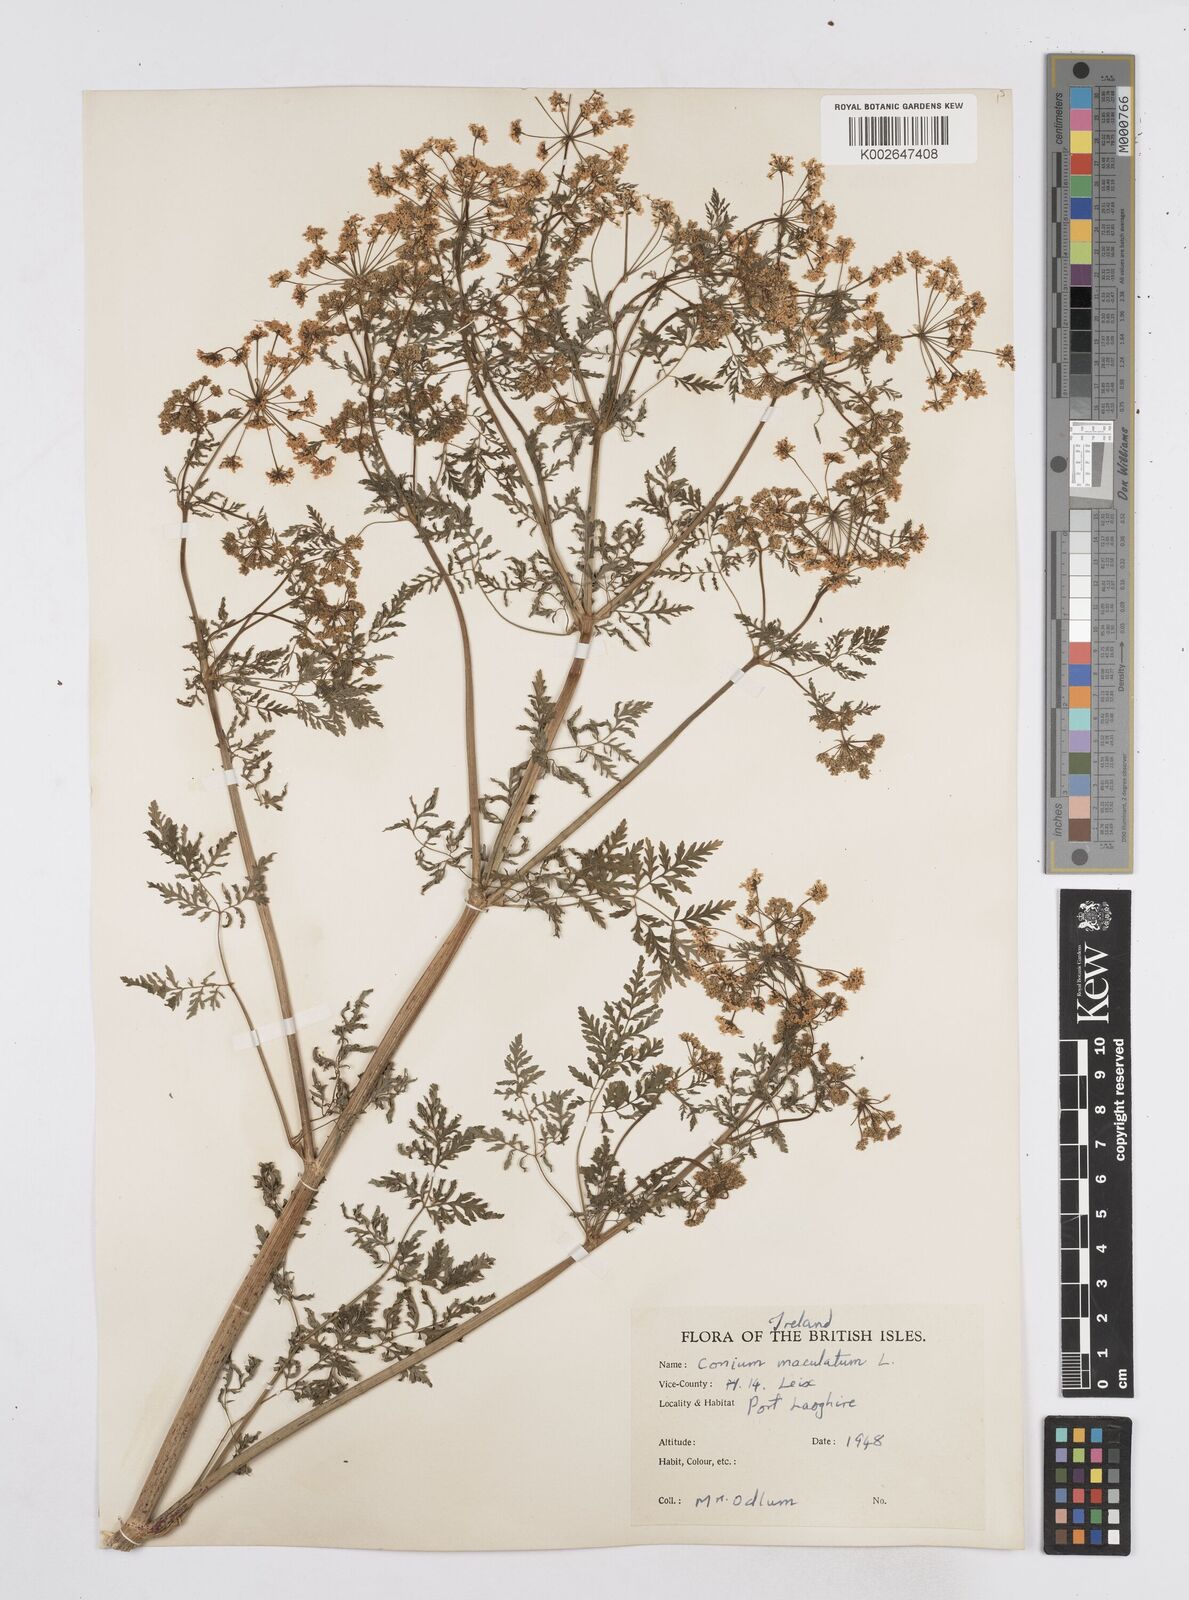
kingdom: Plantae
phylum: Tracheophyta
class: Magnoliopsida
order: Apiales
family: Apiaceae
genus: Conium
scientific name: Conium maculatum
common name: Hemlock
